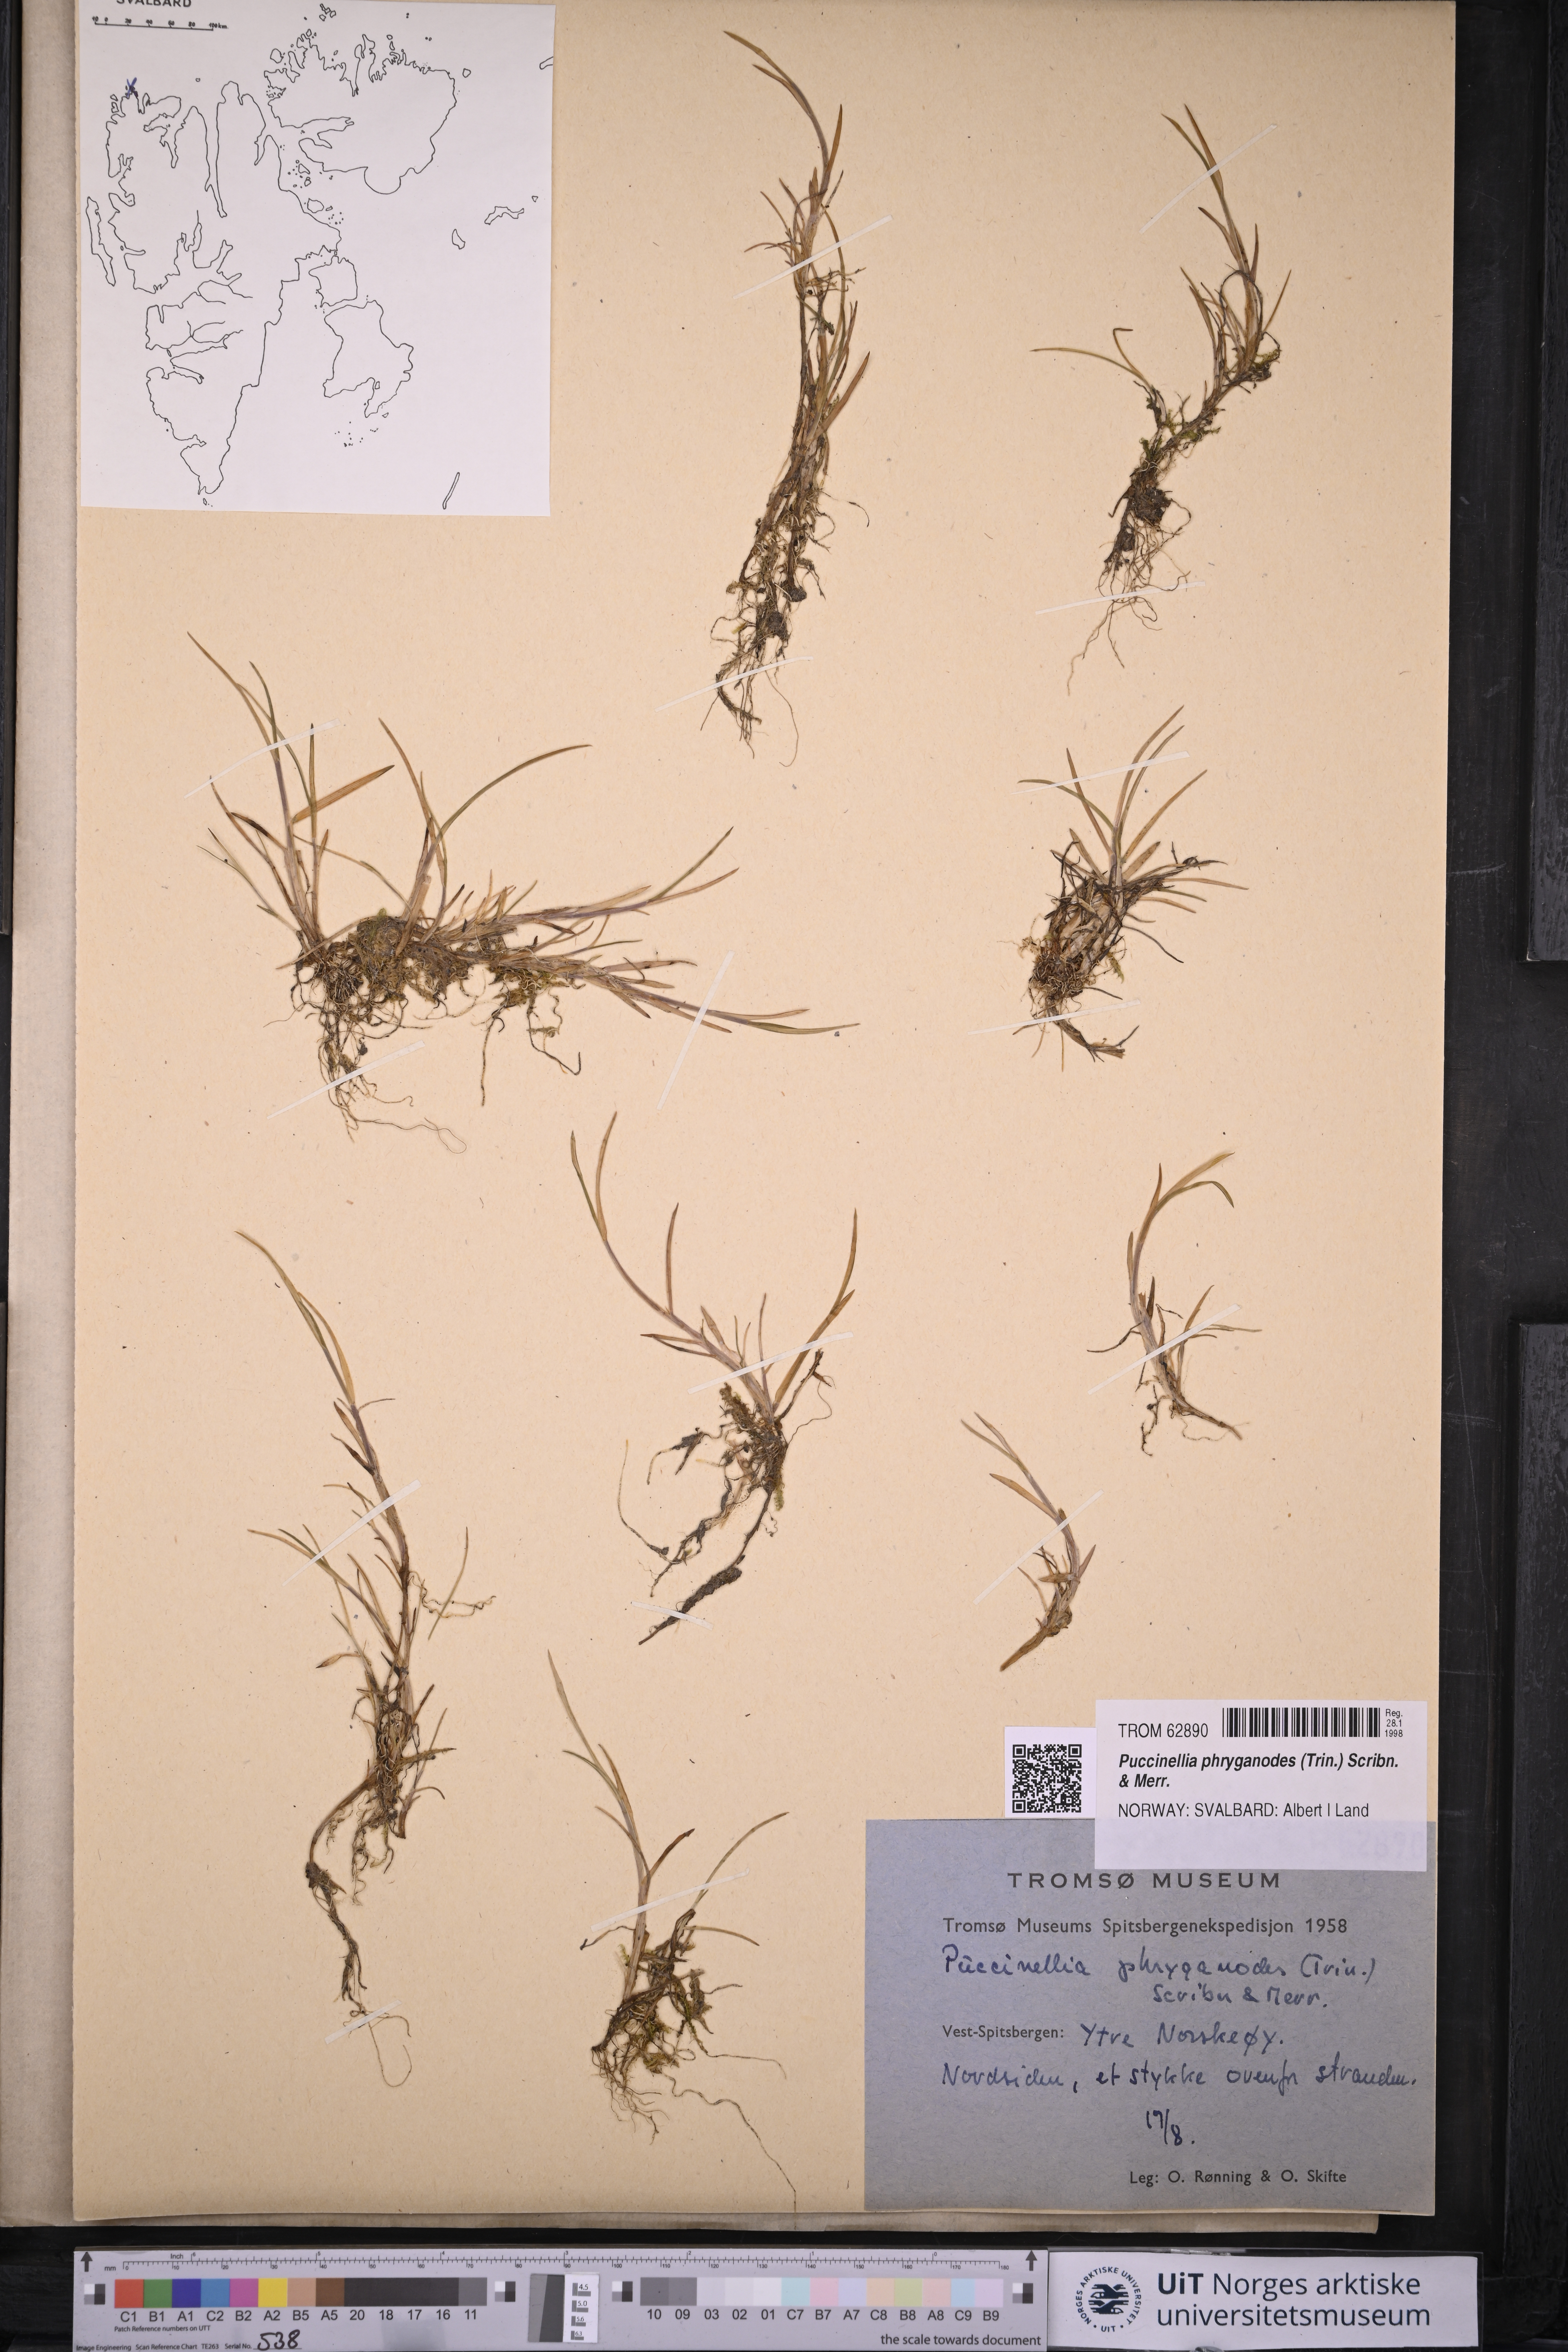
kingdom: Plantae
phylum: Tracheophyta
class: Liliopsida
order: Poales
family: Poaceae
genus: Puccinellia
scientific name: Puccinellia phryganodes
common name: Creeping alkaligrass
